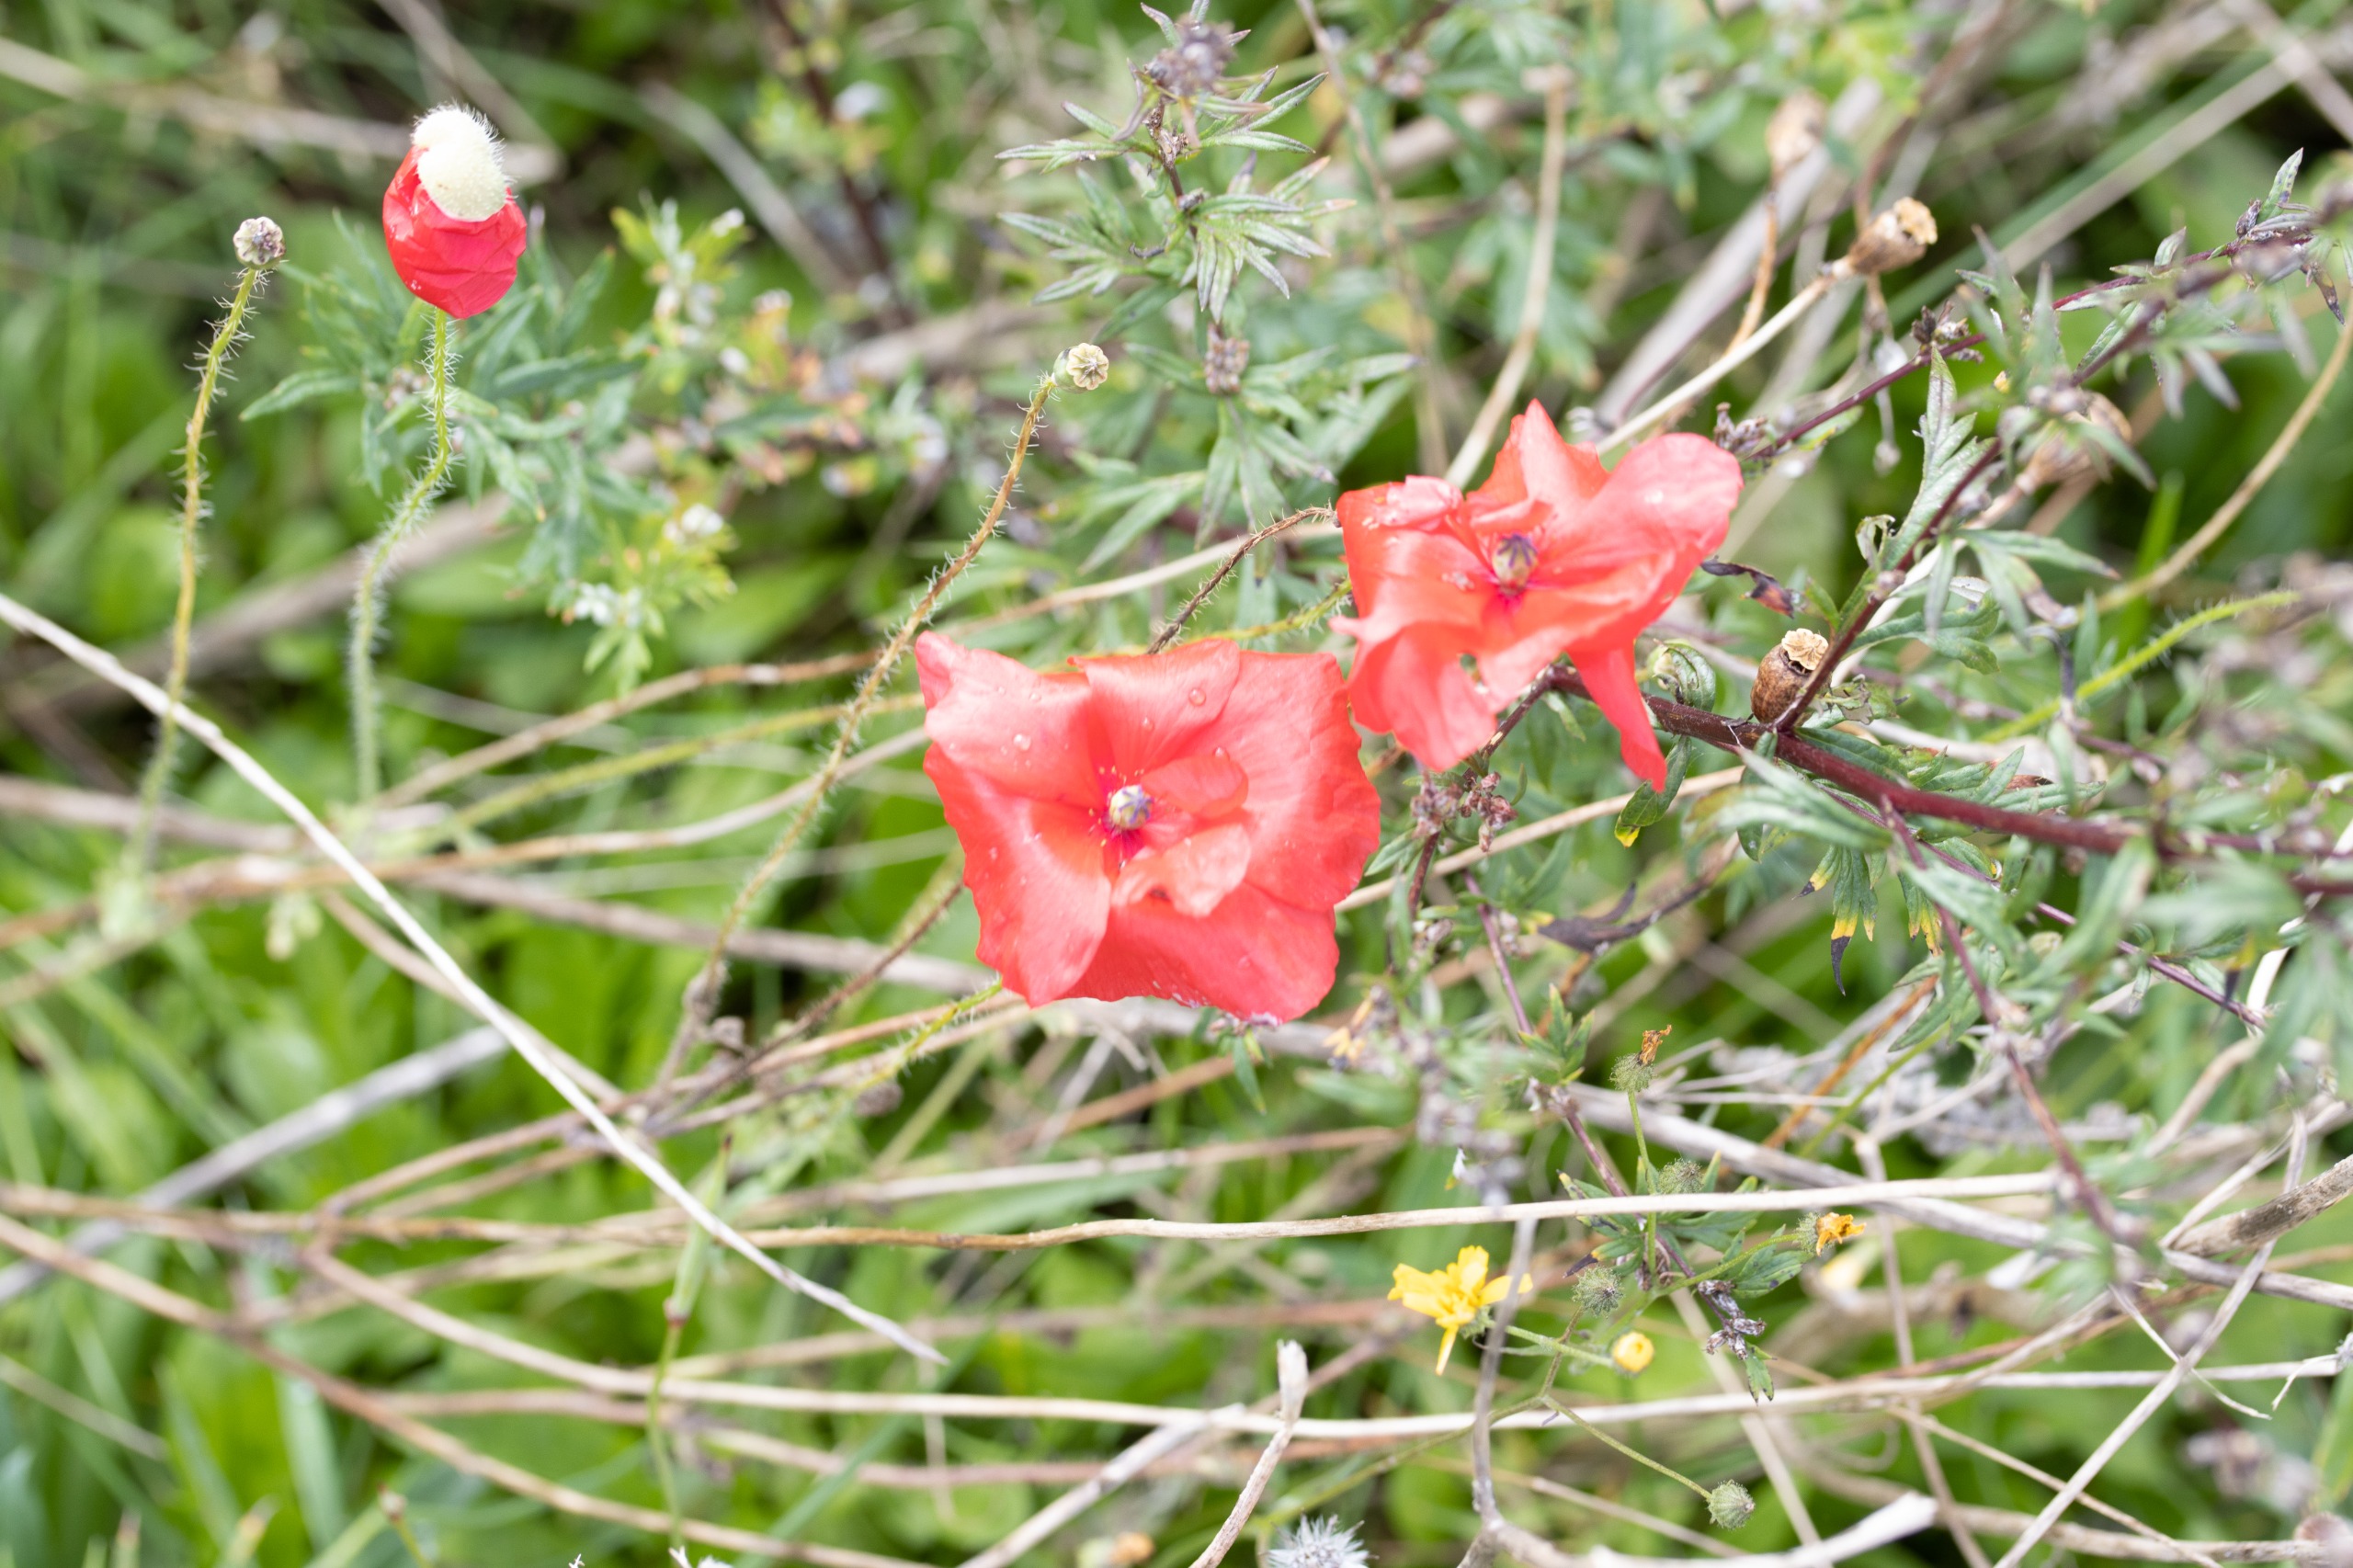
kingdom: Plantae
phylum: Tracheophyta
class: Magnoliopsida
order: Ranunculales
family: Papaveraceae
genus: Papaver
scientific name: Papaver rhoeas
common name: Korn-valmue
